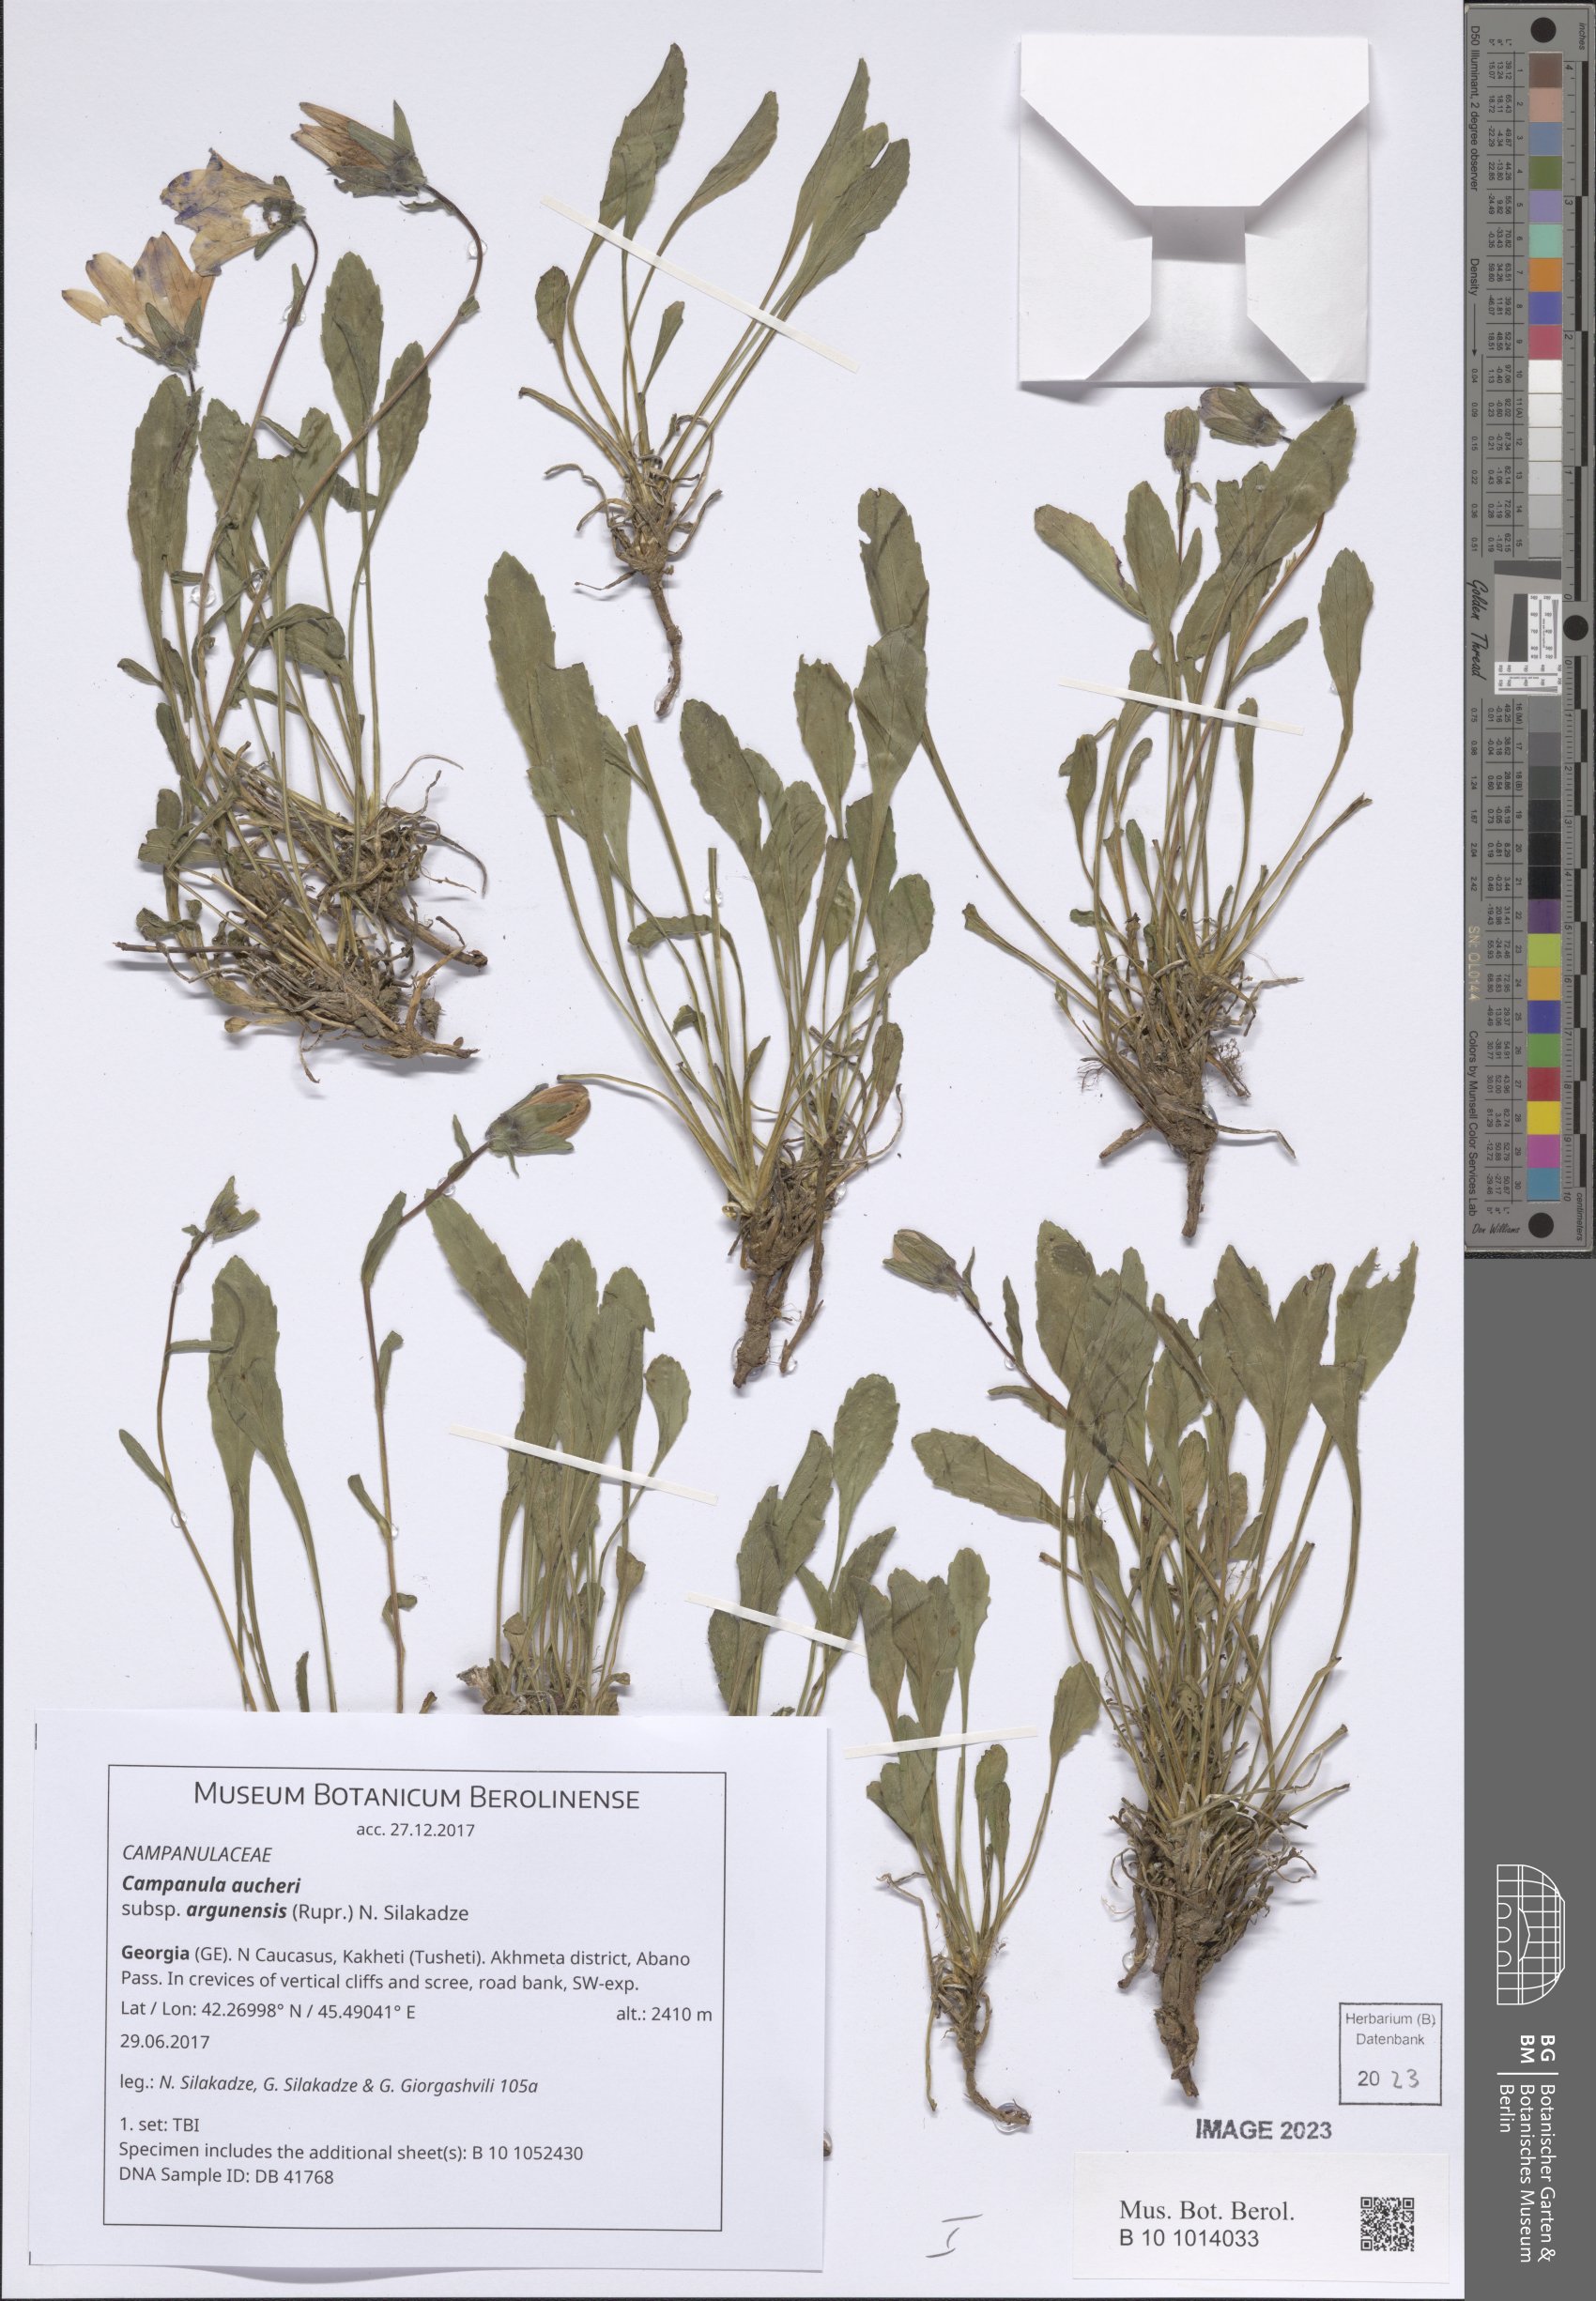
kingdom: Plantae
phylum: Tracheophyta
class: Magnoliopsida
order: Asterales
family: Campanulaceae
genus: Campanula
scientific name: Campanula saxifraga
